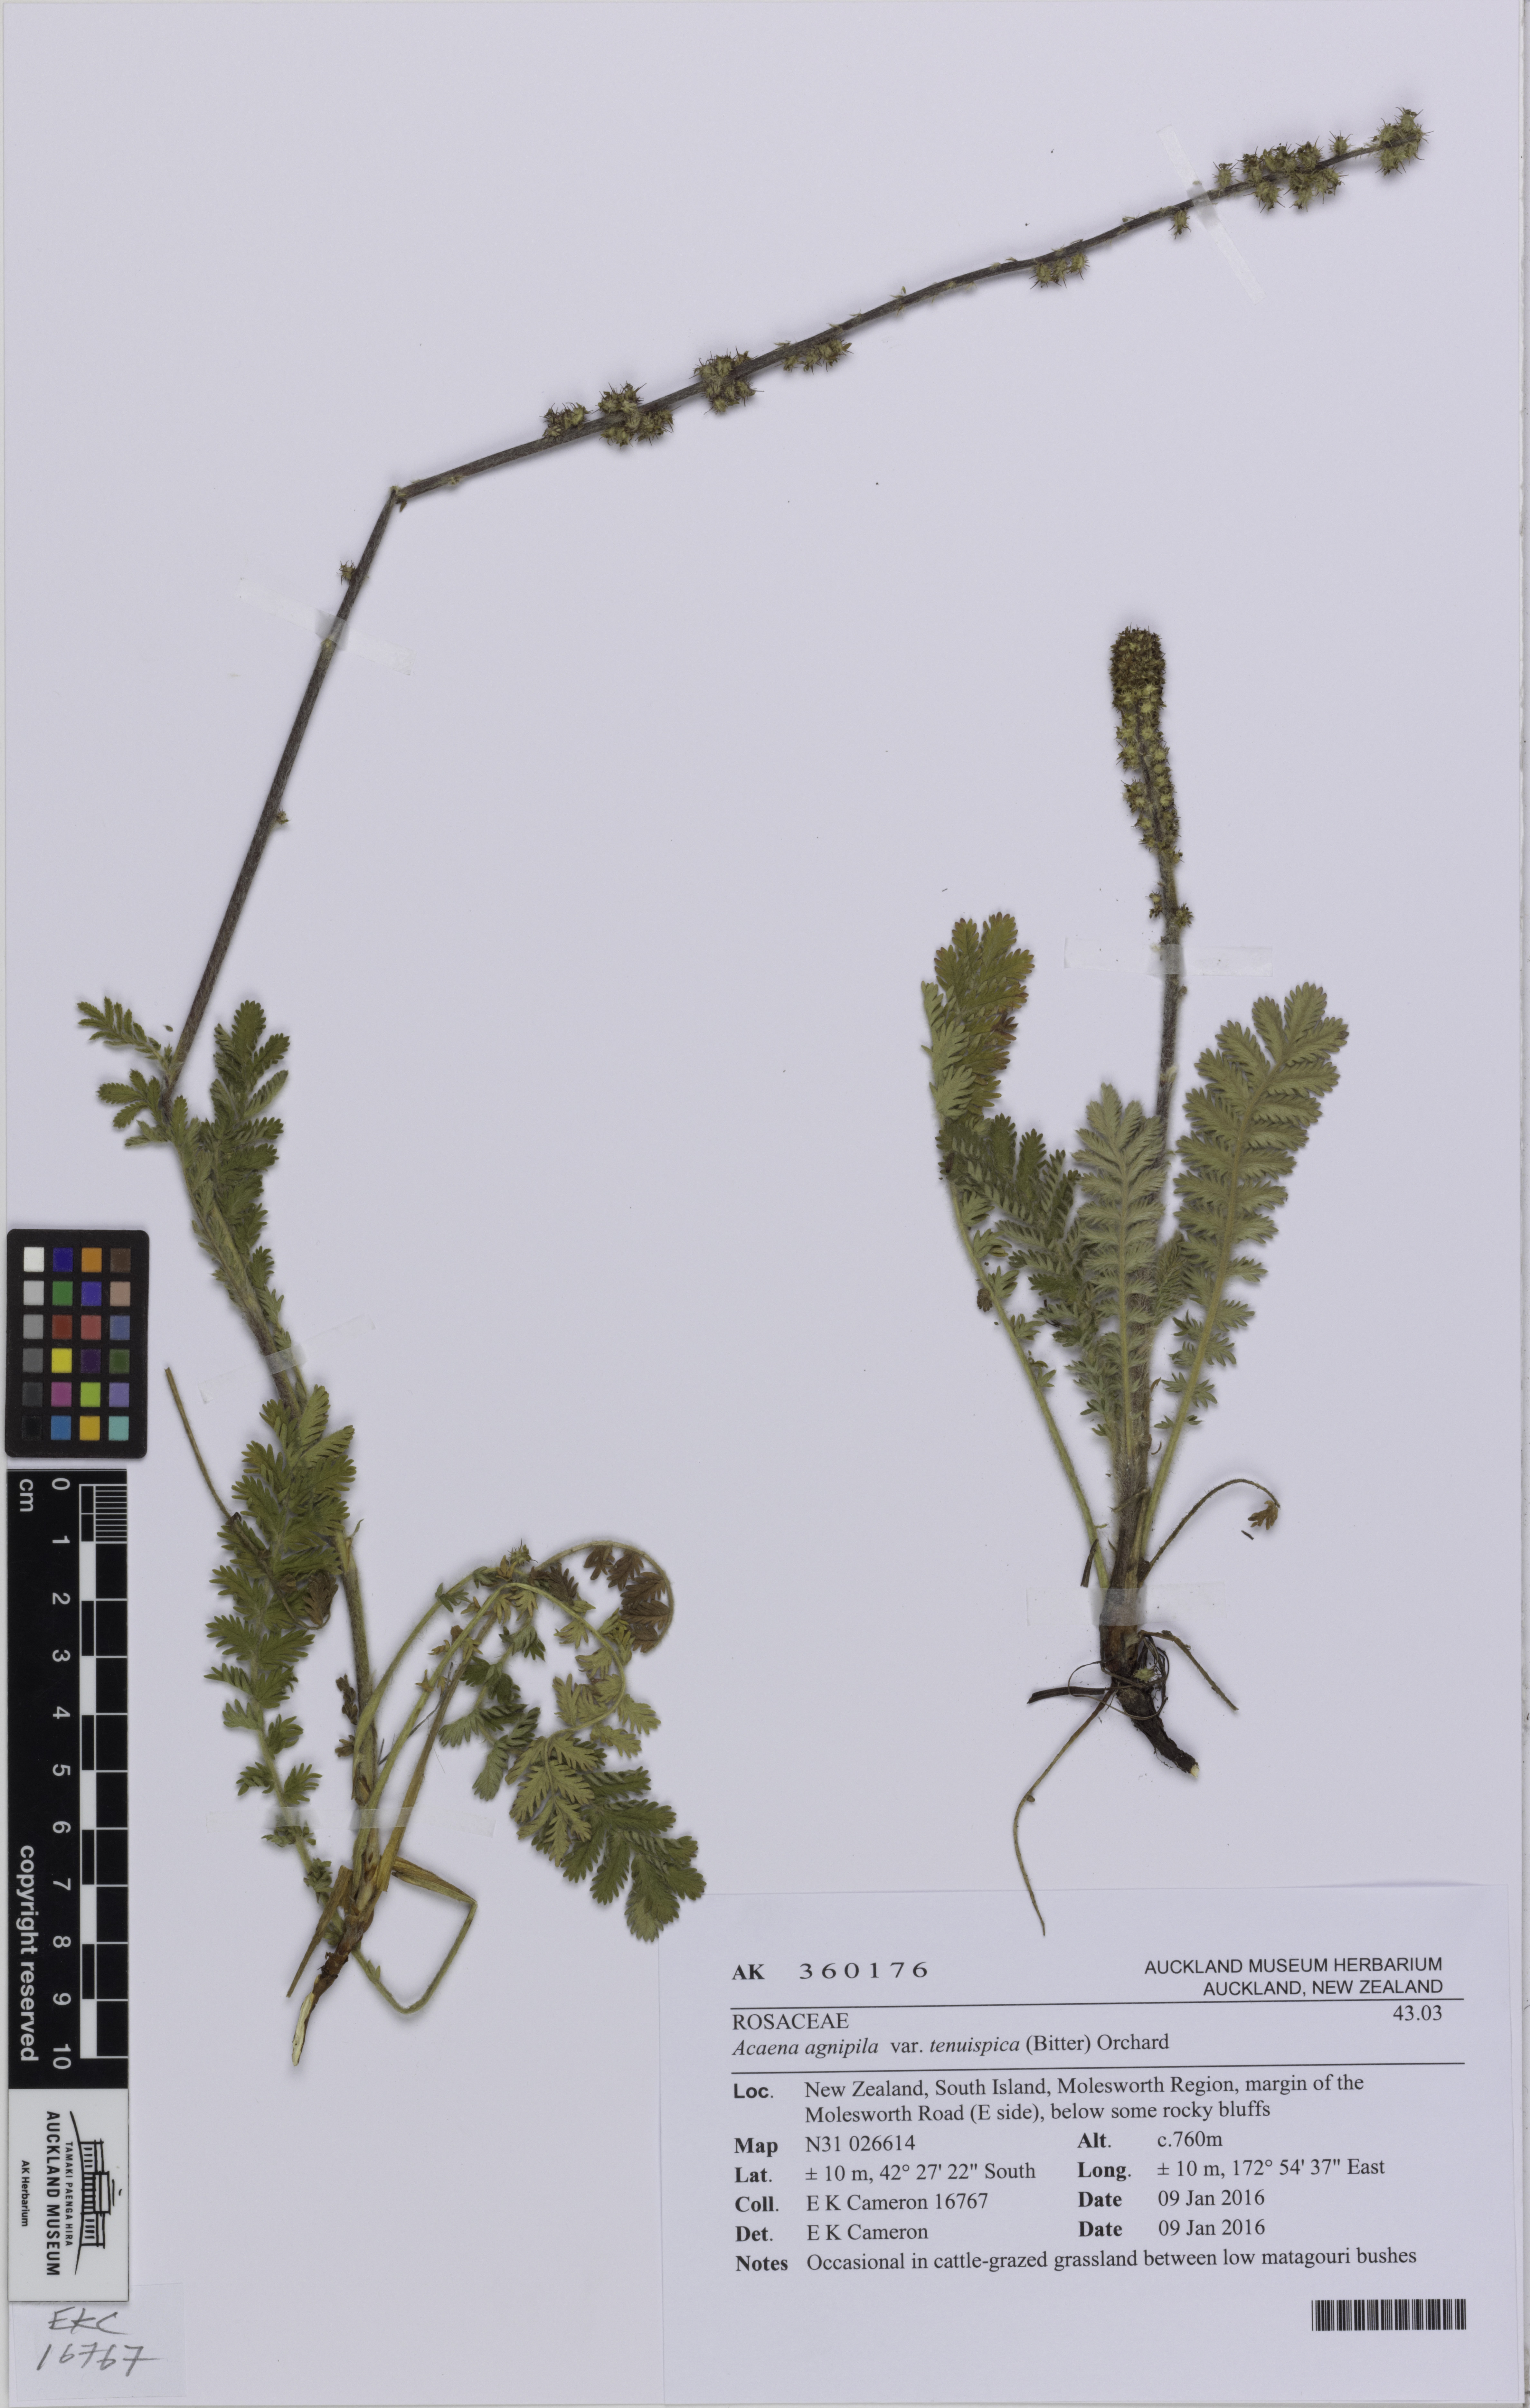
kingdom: Plantae
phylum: Tracheophyta
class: Magnoliopsida
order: Rosales
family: Rosaceae
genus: Acaena
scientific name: Acaena agnipila
